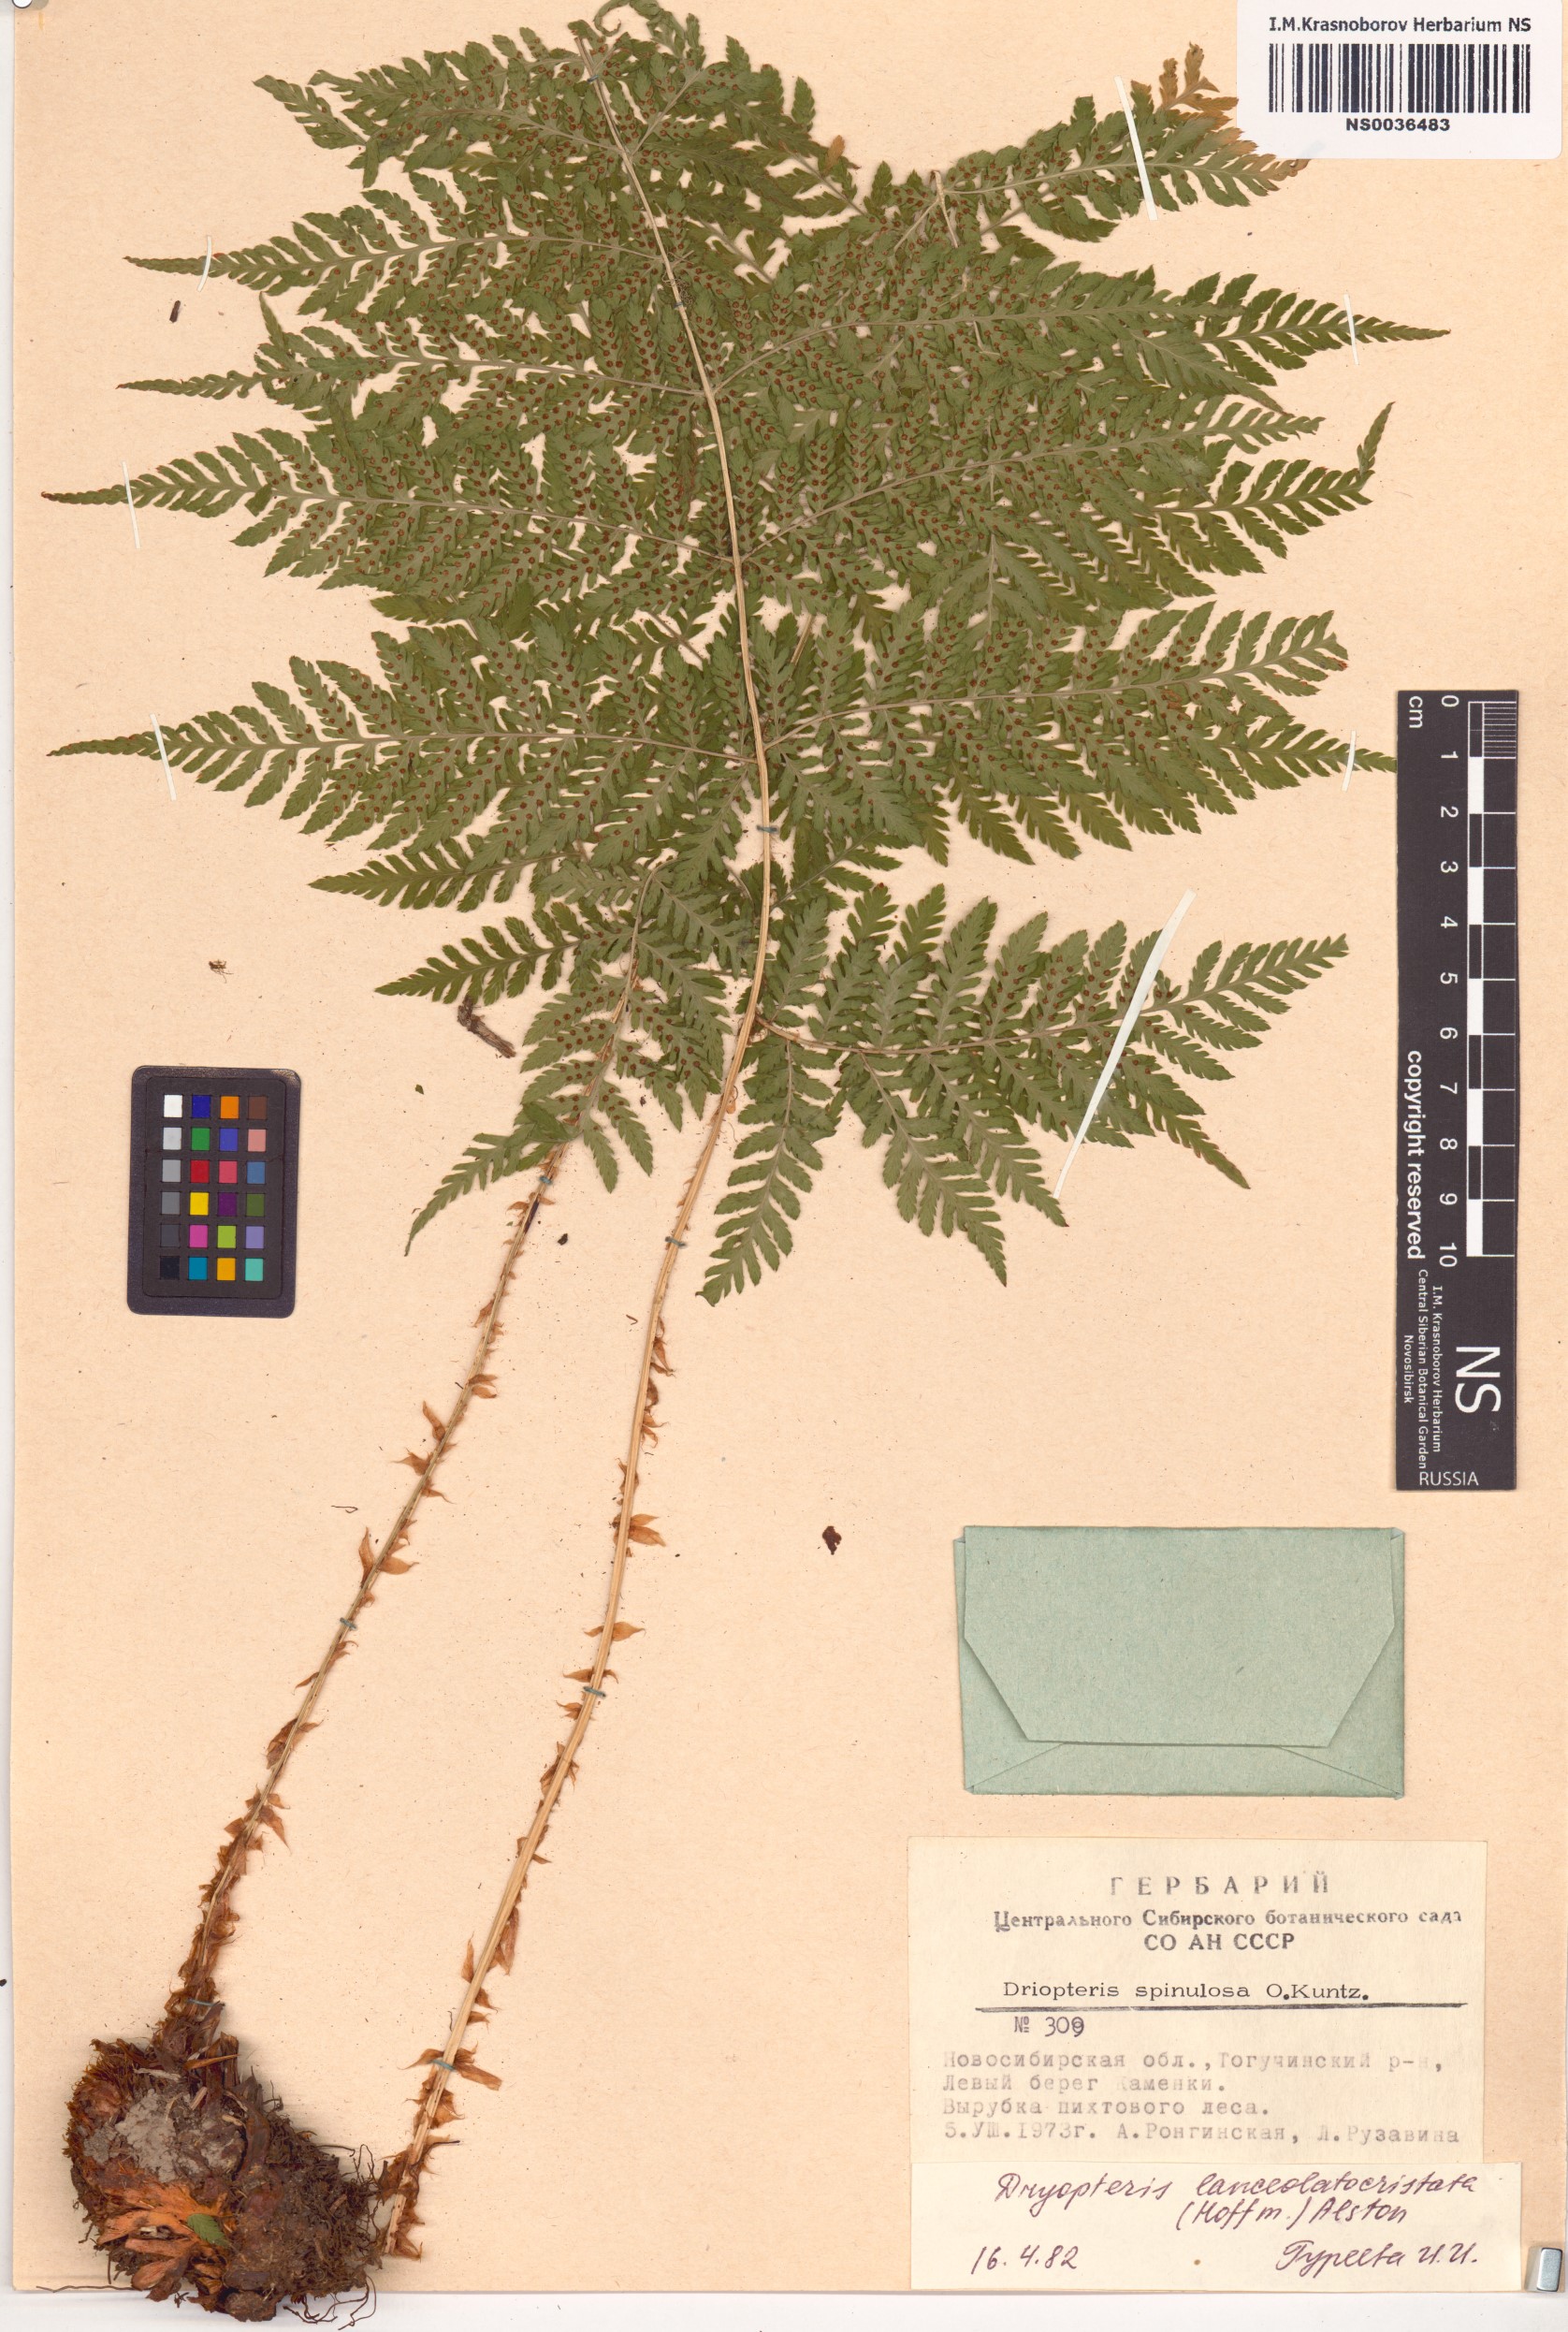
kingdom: Plantae
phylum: Tracheophyta
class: Polypodiopsida
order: Polypodiales
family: Dryopteridaceae
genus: Dryopteris
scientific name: Dryopteris carthusiana
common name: Narrow buckler-fern
